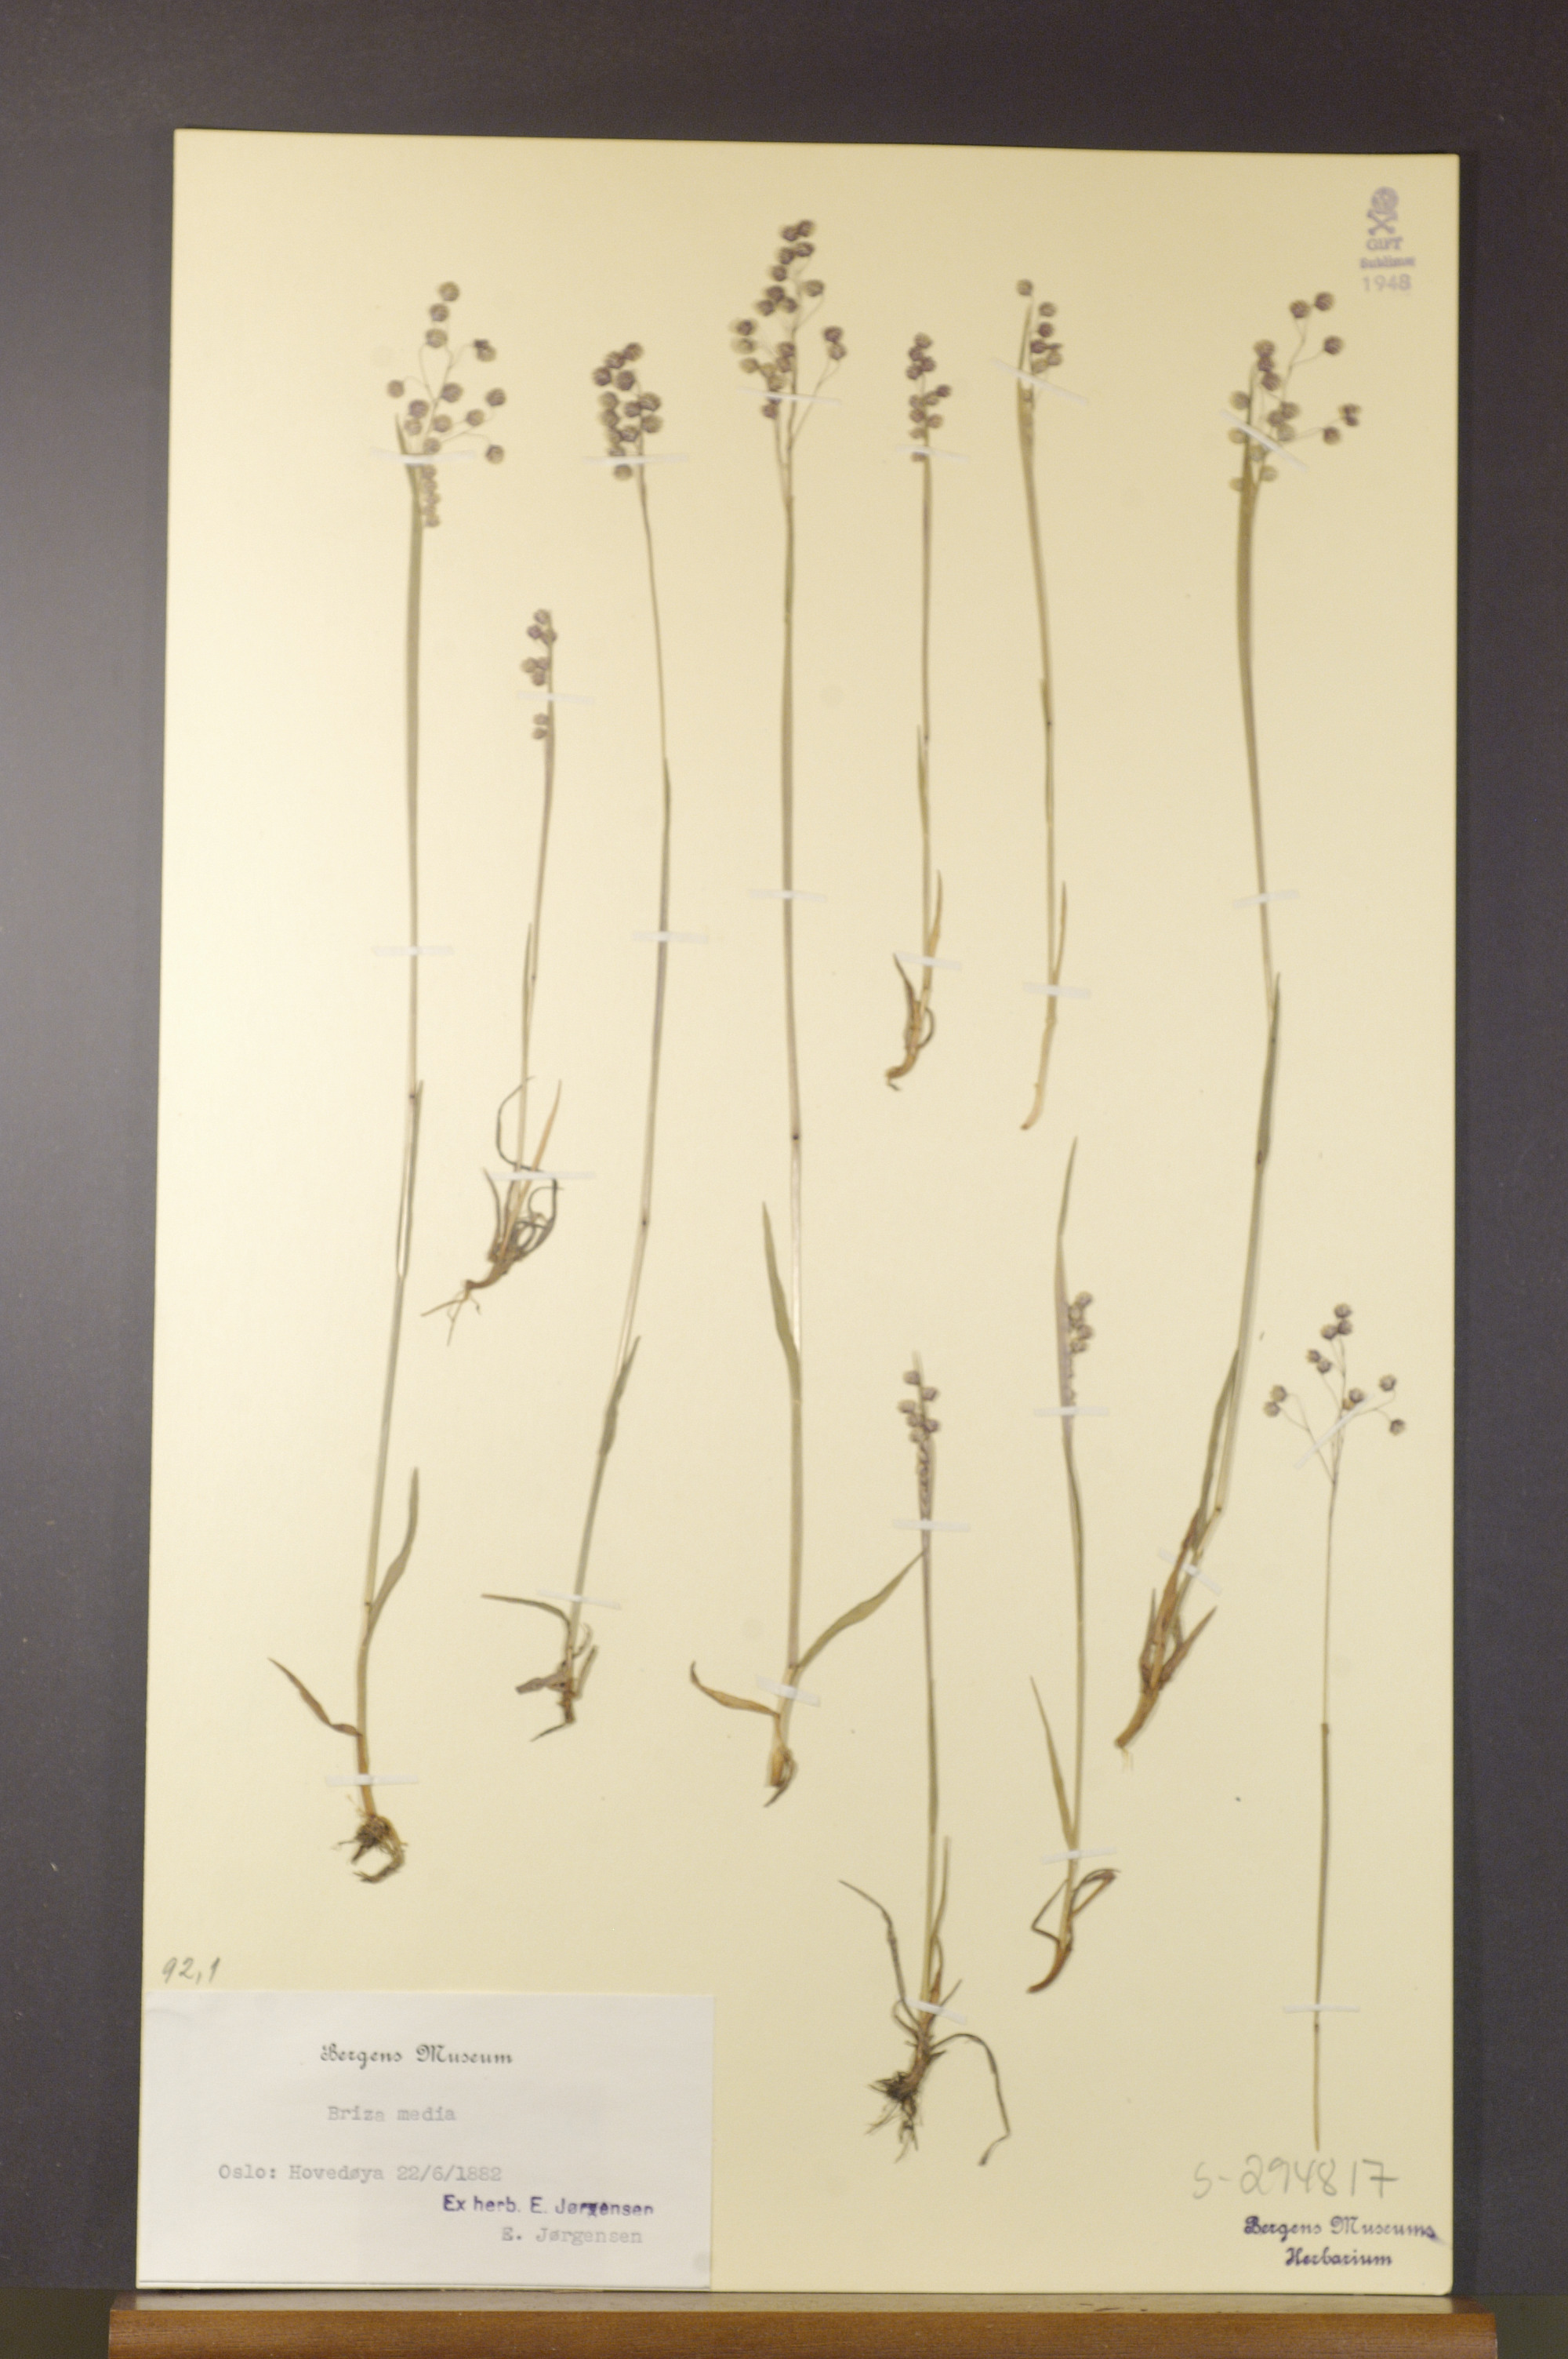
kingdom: Plantae
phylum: Tracheophyta
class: Liliopsida
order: Poales
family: Poaceae
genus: Briza
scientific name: Briza media
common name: Quaking grass
